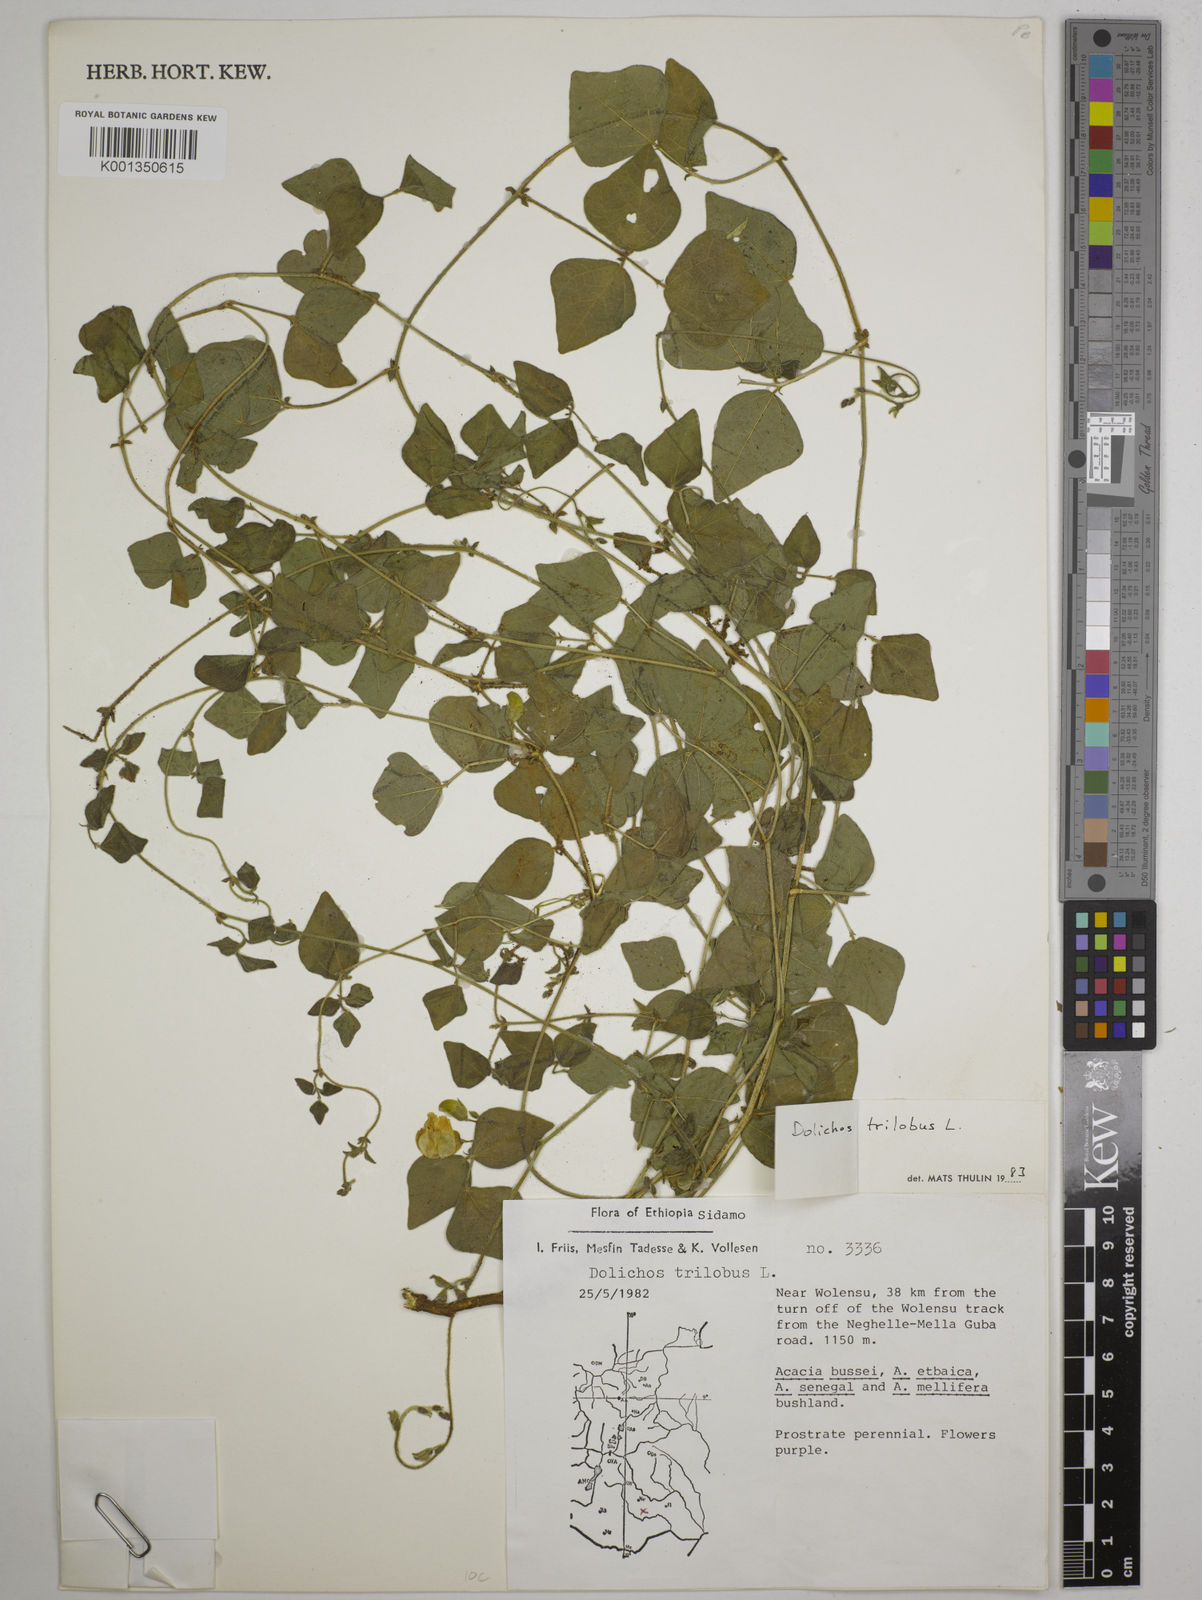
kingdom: Plantae
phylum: Tracheophyta
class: Magnoliopsida
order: Fabales
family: Fabaceae
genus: Dolichos
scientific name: Dolichos trilobus
